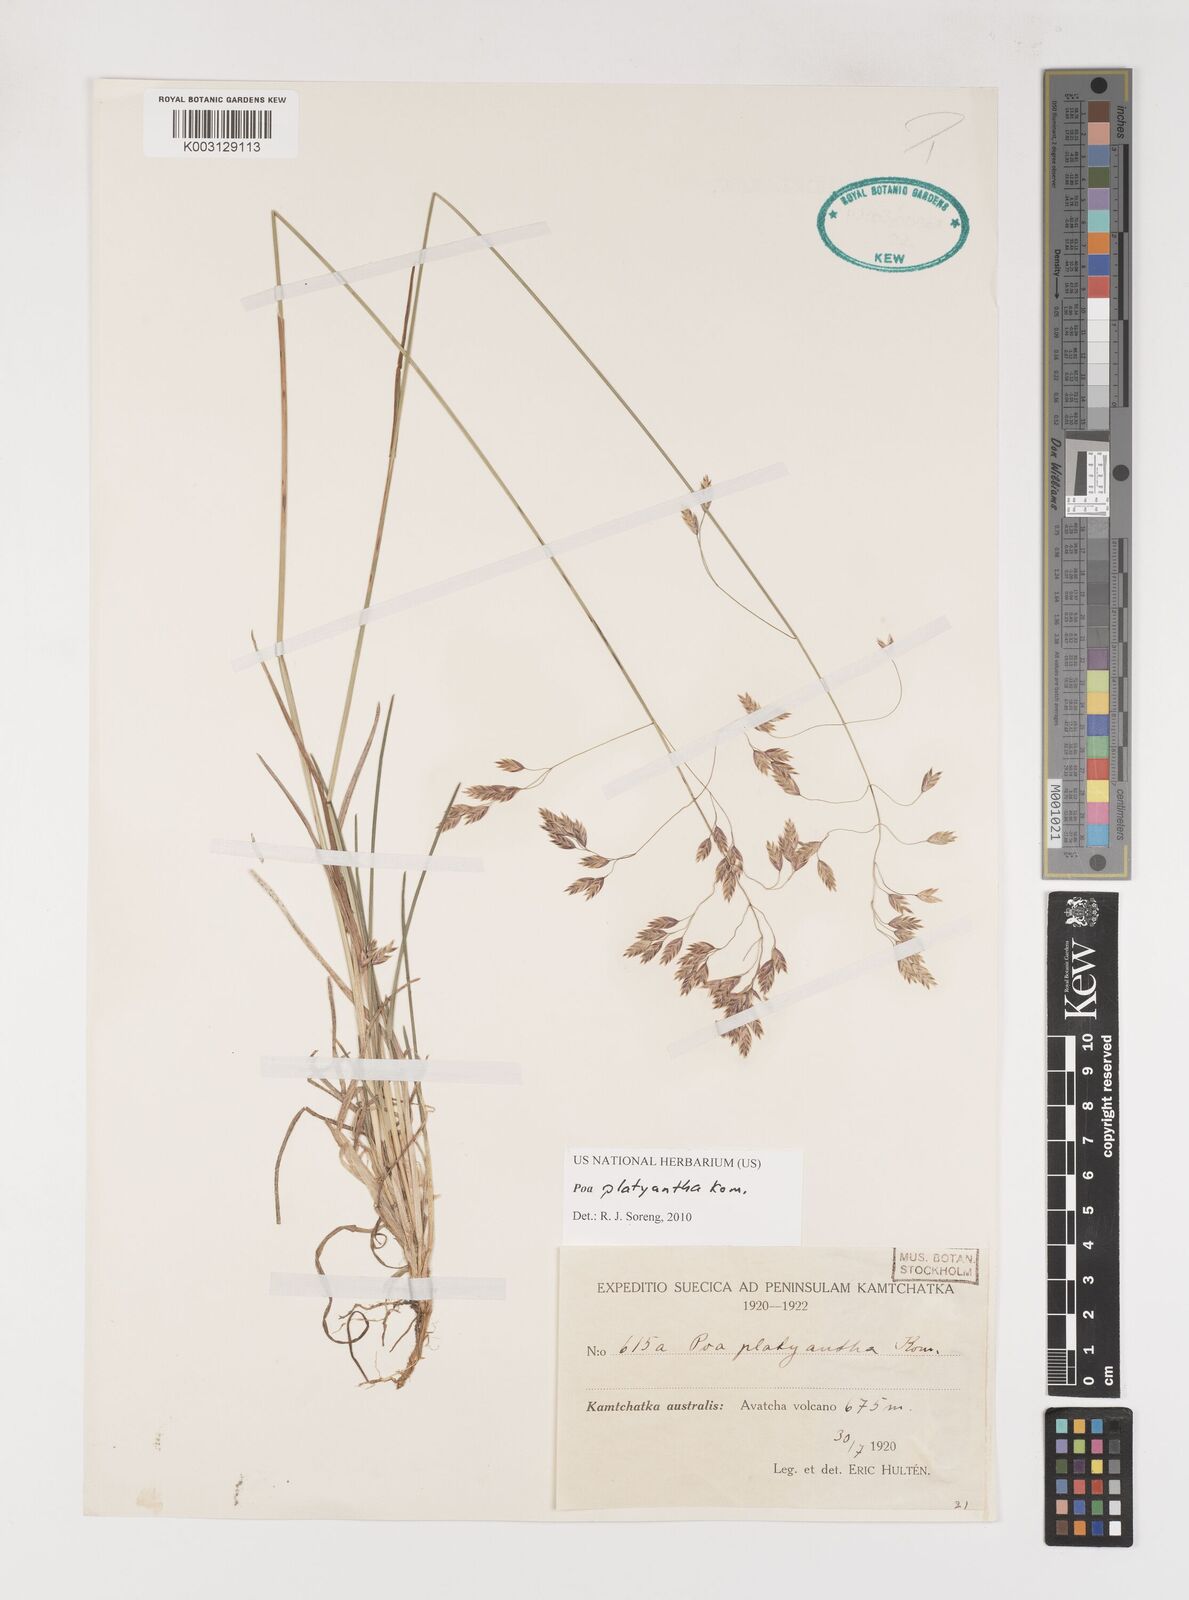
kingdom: Plantae
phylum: Tracheophyta
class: Liliopsida
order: Poales
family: Poaceae
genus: Poa
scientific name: Poa platyantha
